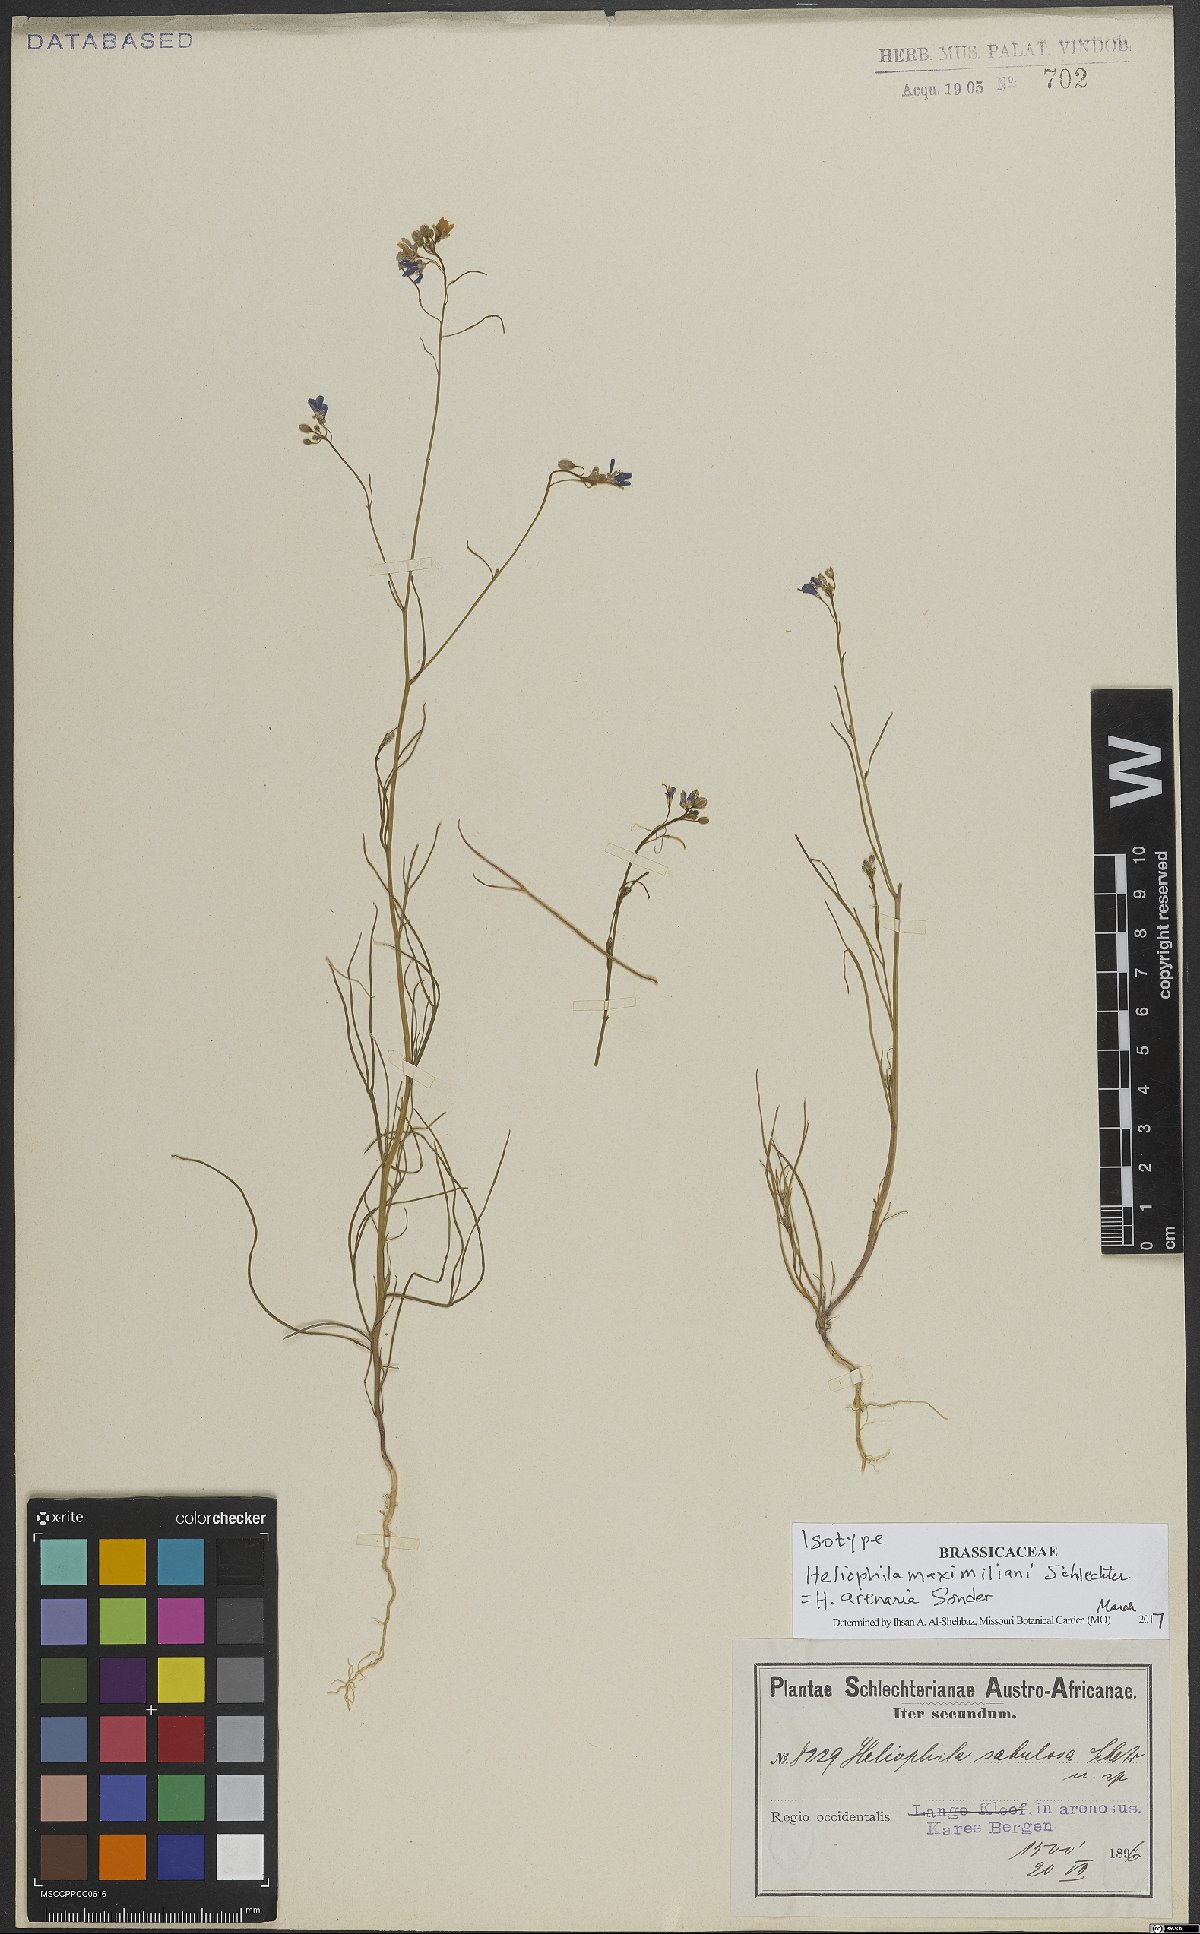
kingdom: Plantae
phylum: Tracheophyta
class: Magnoliopsida
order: Brassicales
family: Brassicaceae
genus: Heliophila
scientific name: Heliophila arenaria
